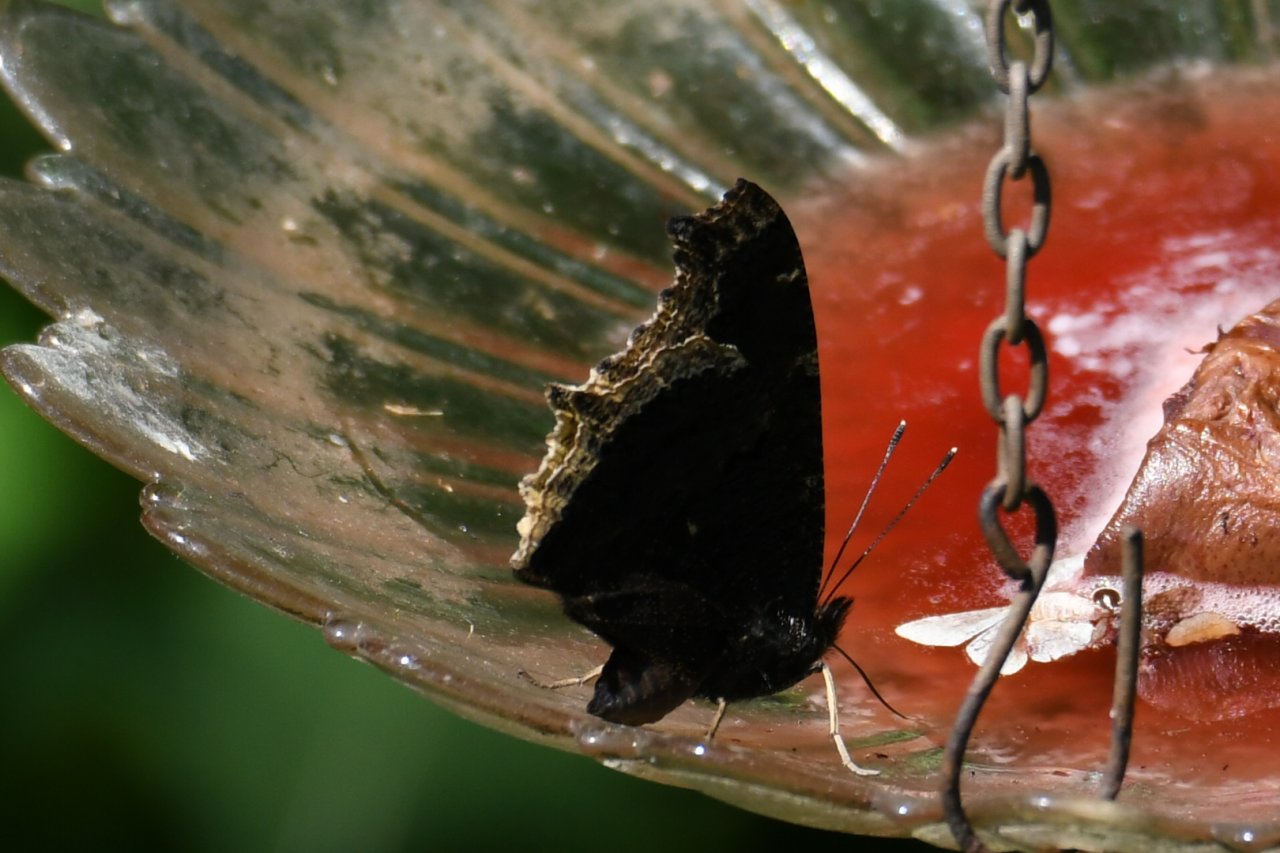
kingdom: Animalia
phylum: Arthropoda
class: Insecta
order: Lepidoptera
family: Nymphalidae
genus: Nymphalis
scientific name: Nymphalis antiopa
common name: Mourning Cloak
